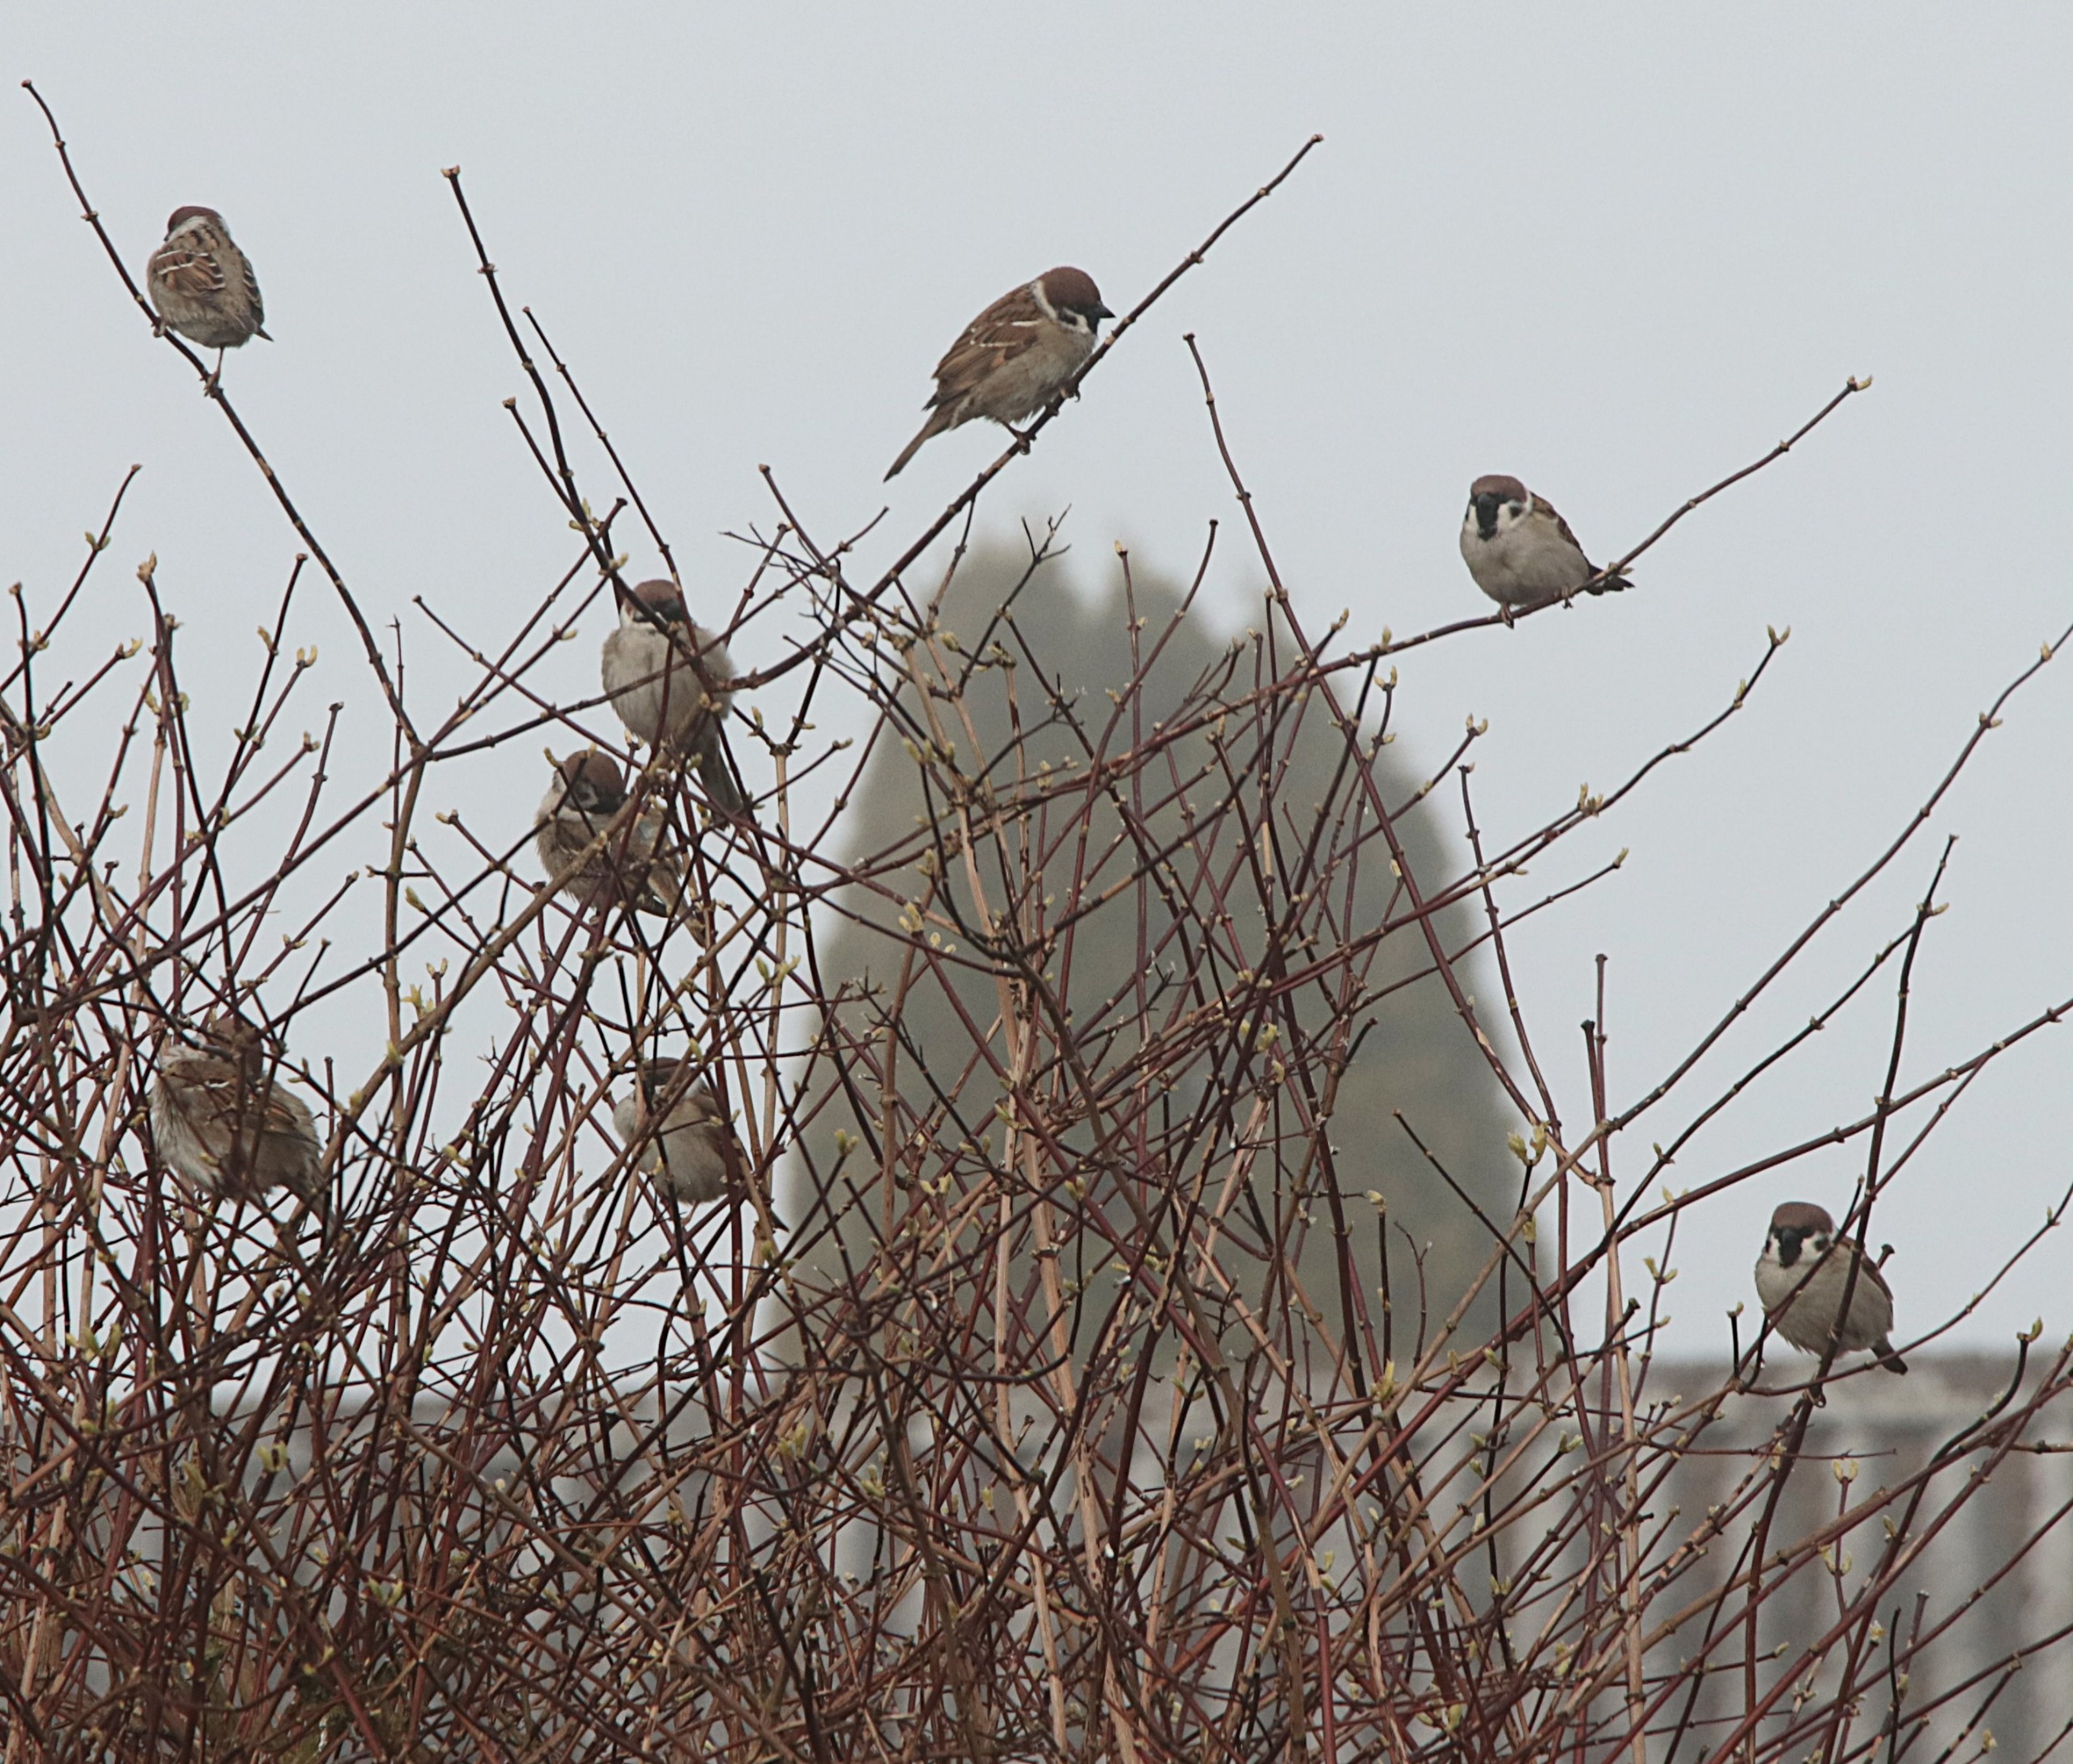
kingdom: Animalia
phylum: Chordata
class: Aves
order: Passeriformes
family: Passeridae
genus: Passer
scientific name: Passer montanus
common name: Skovspurv
